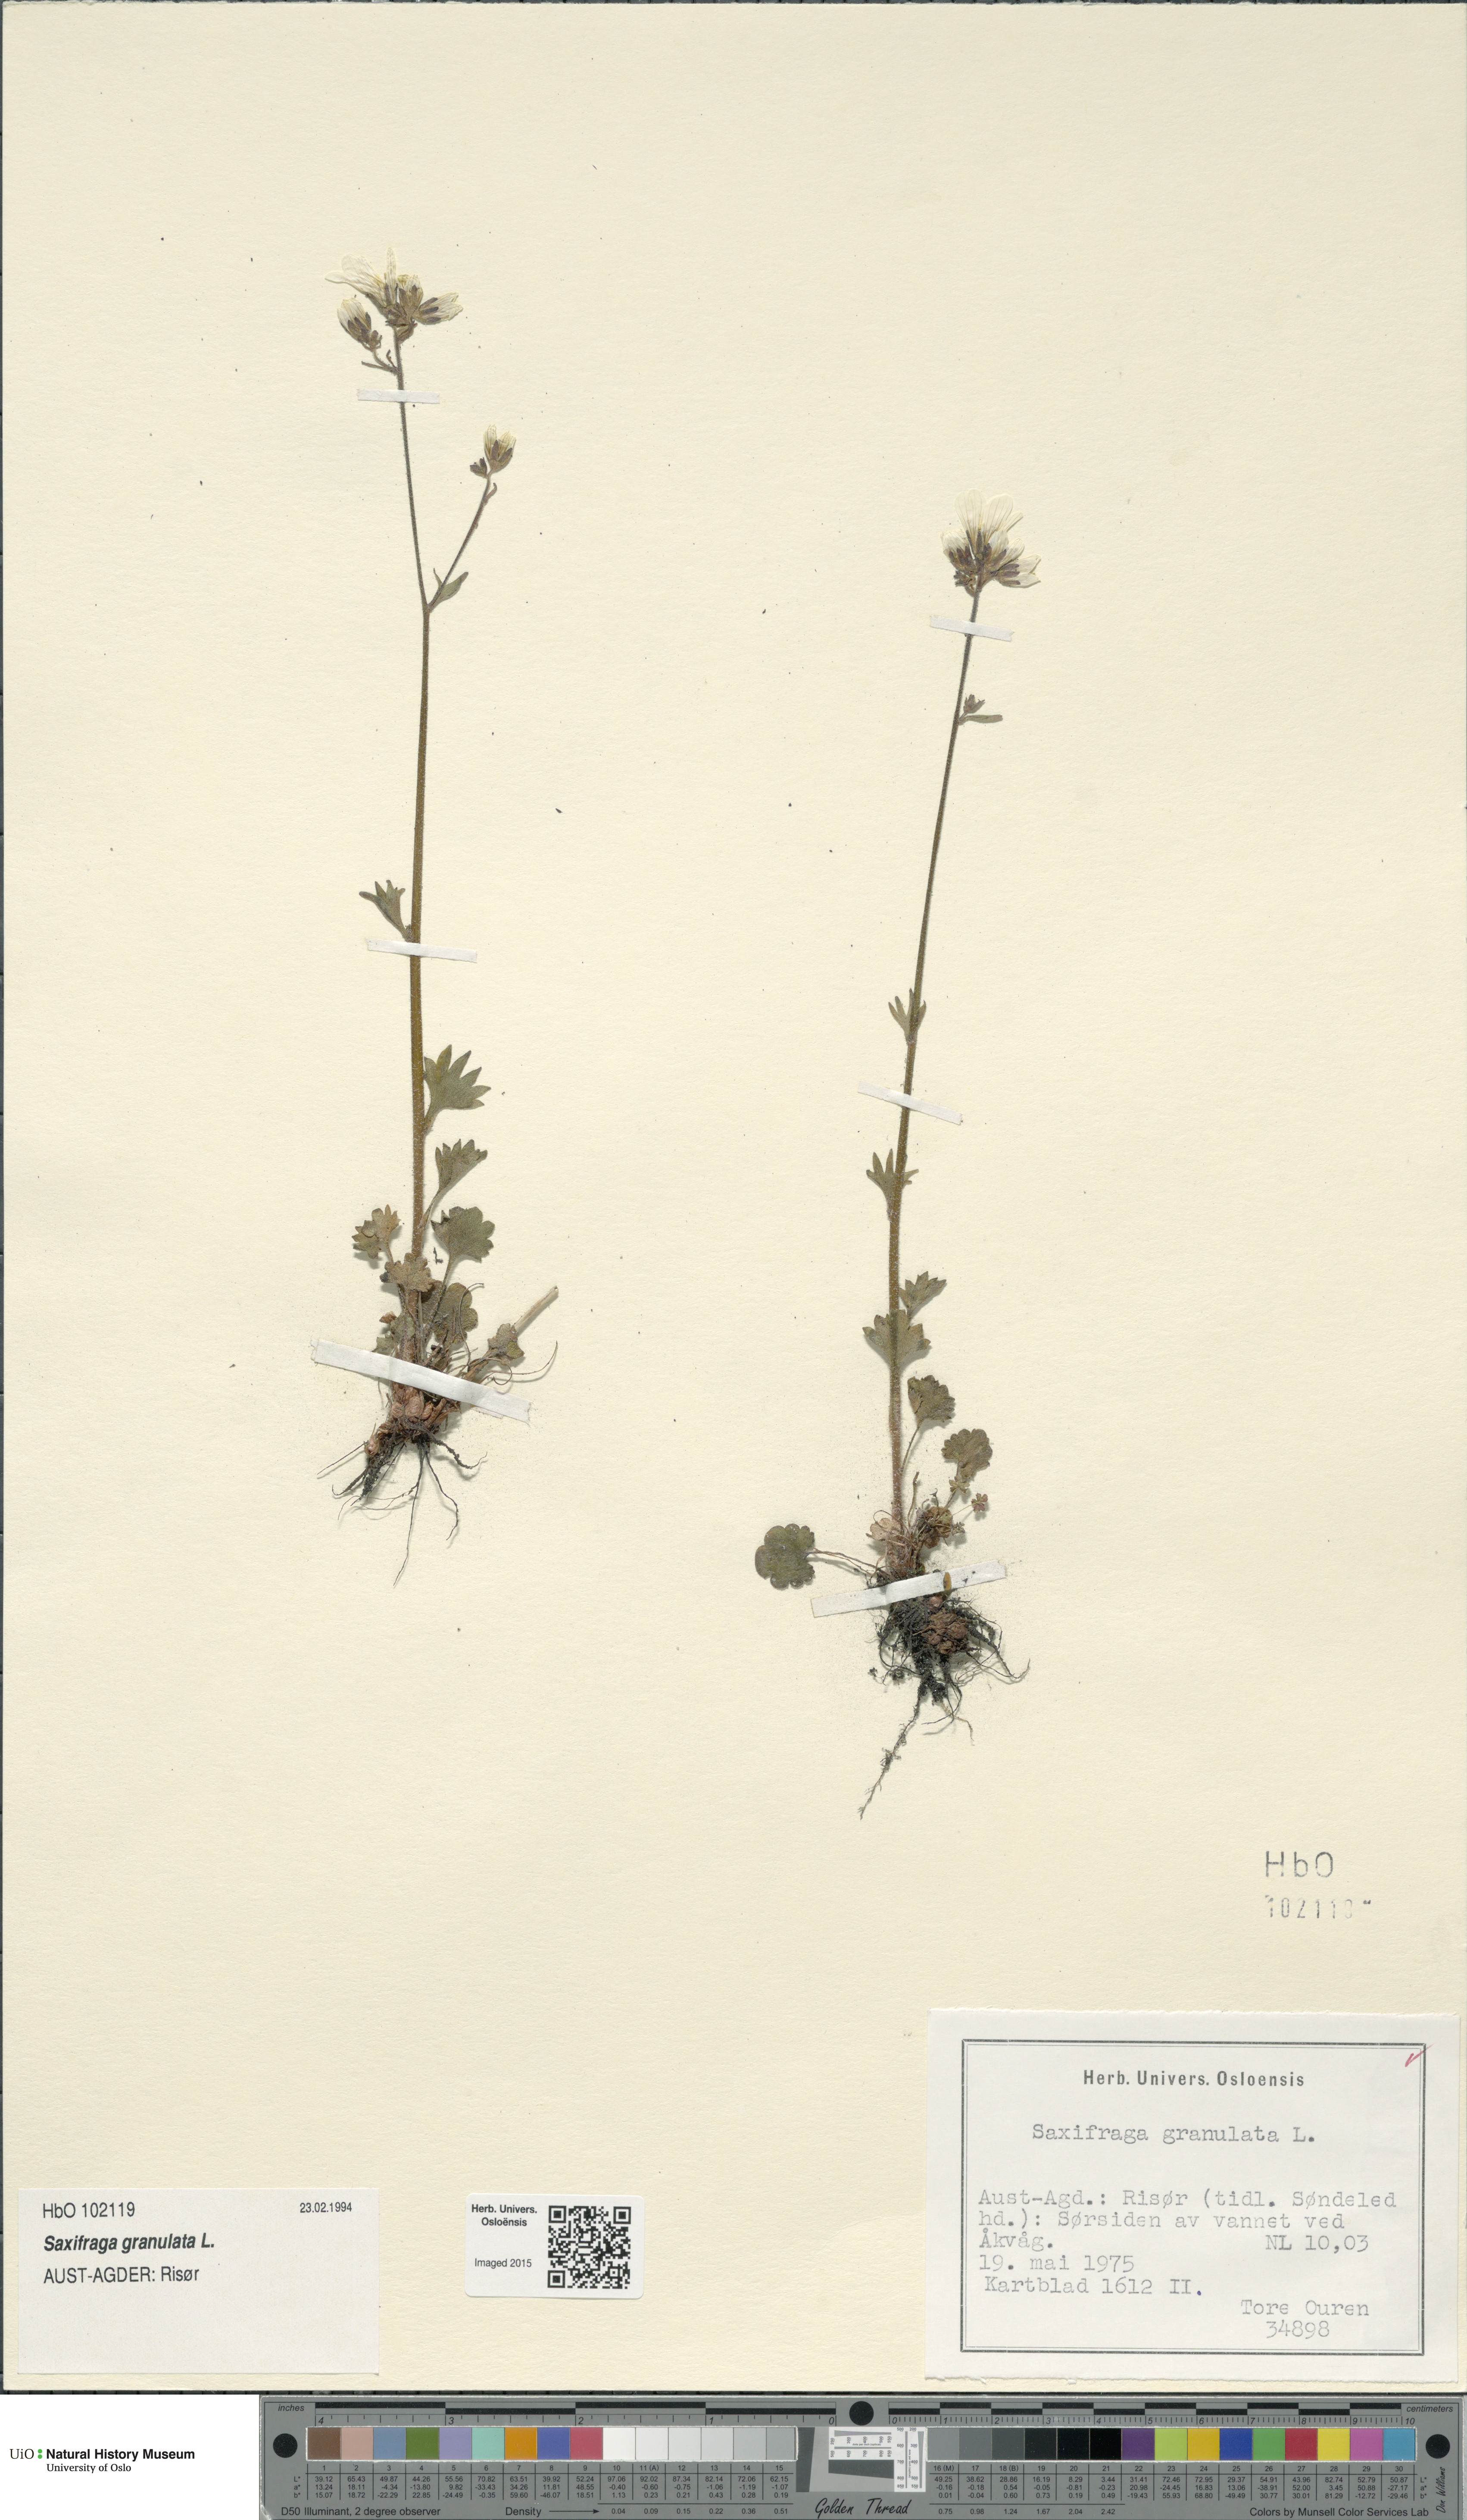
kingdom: Plantae
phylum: Tracheophyta
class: Magnoliopsida
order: Saxifragales
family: Saxifragaceae
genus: Saxifraga
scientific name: Saxifraga granulata
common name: Meadow saxifrage
